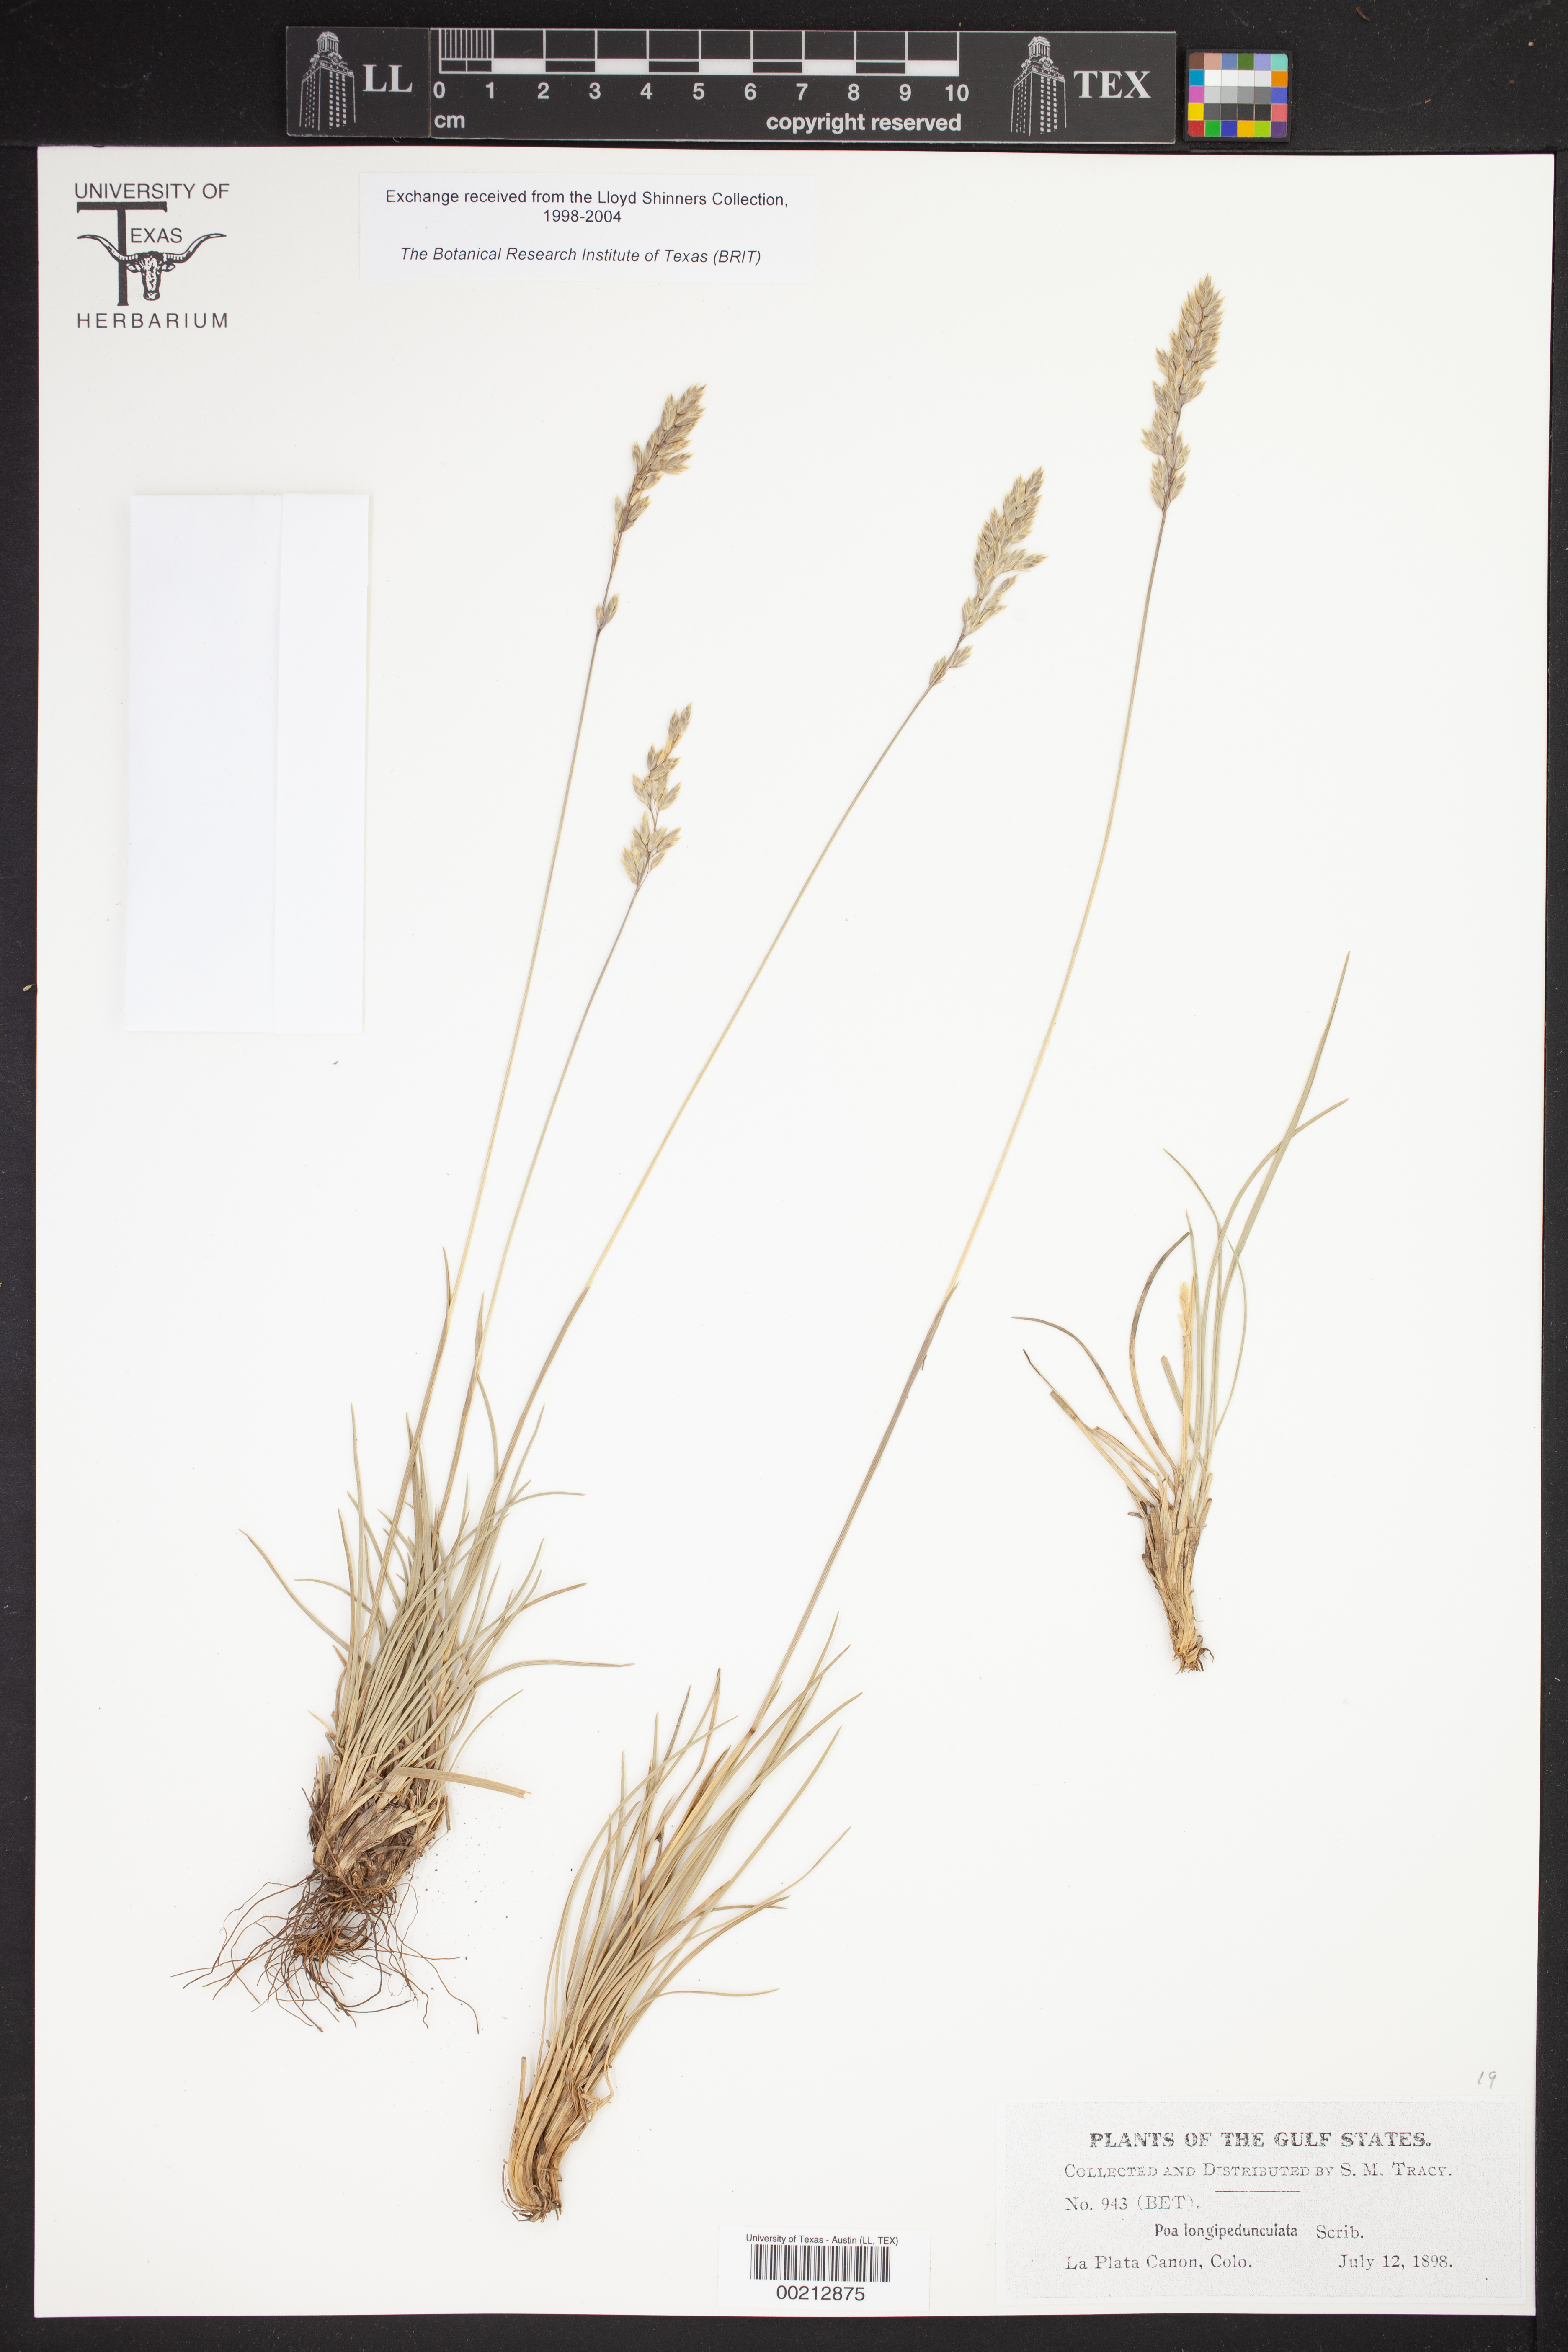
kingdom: Plantae
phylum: Tracheophyta
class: Liliopsida
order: Poales
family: Poaceae
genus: Poa
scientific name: Poa fendleriana
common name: Mutton bluegrass
